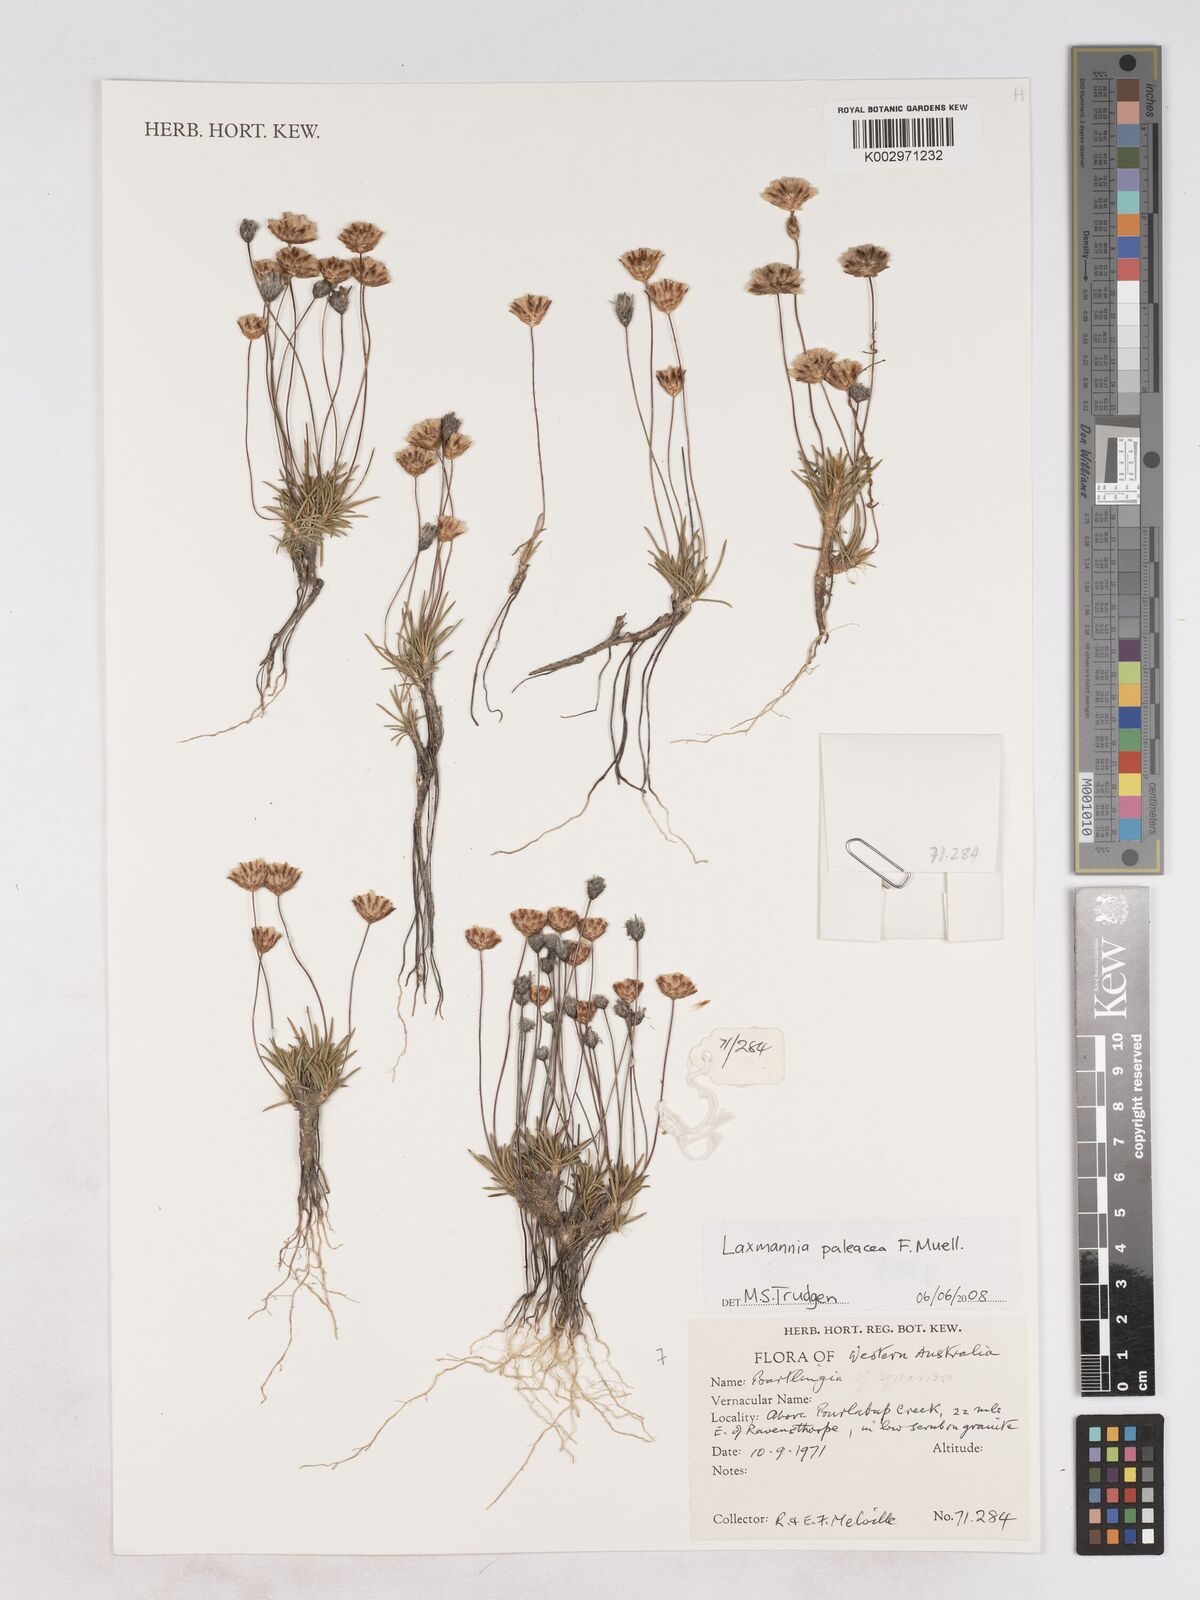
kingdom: Plantae
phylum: Tracheophyta
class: Liliopsida
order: Asparagales
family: Asparagaceae
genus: Laxmannia
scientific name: Laxmannia paleacea
